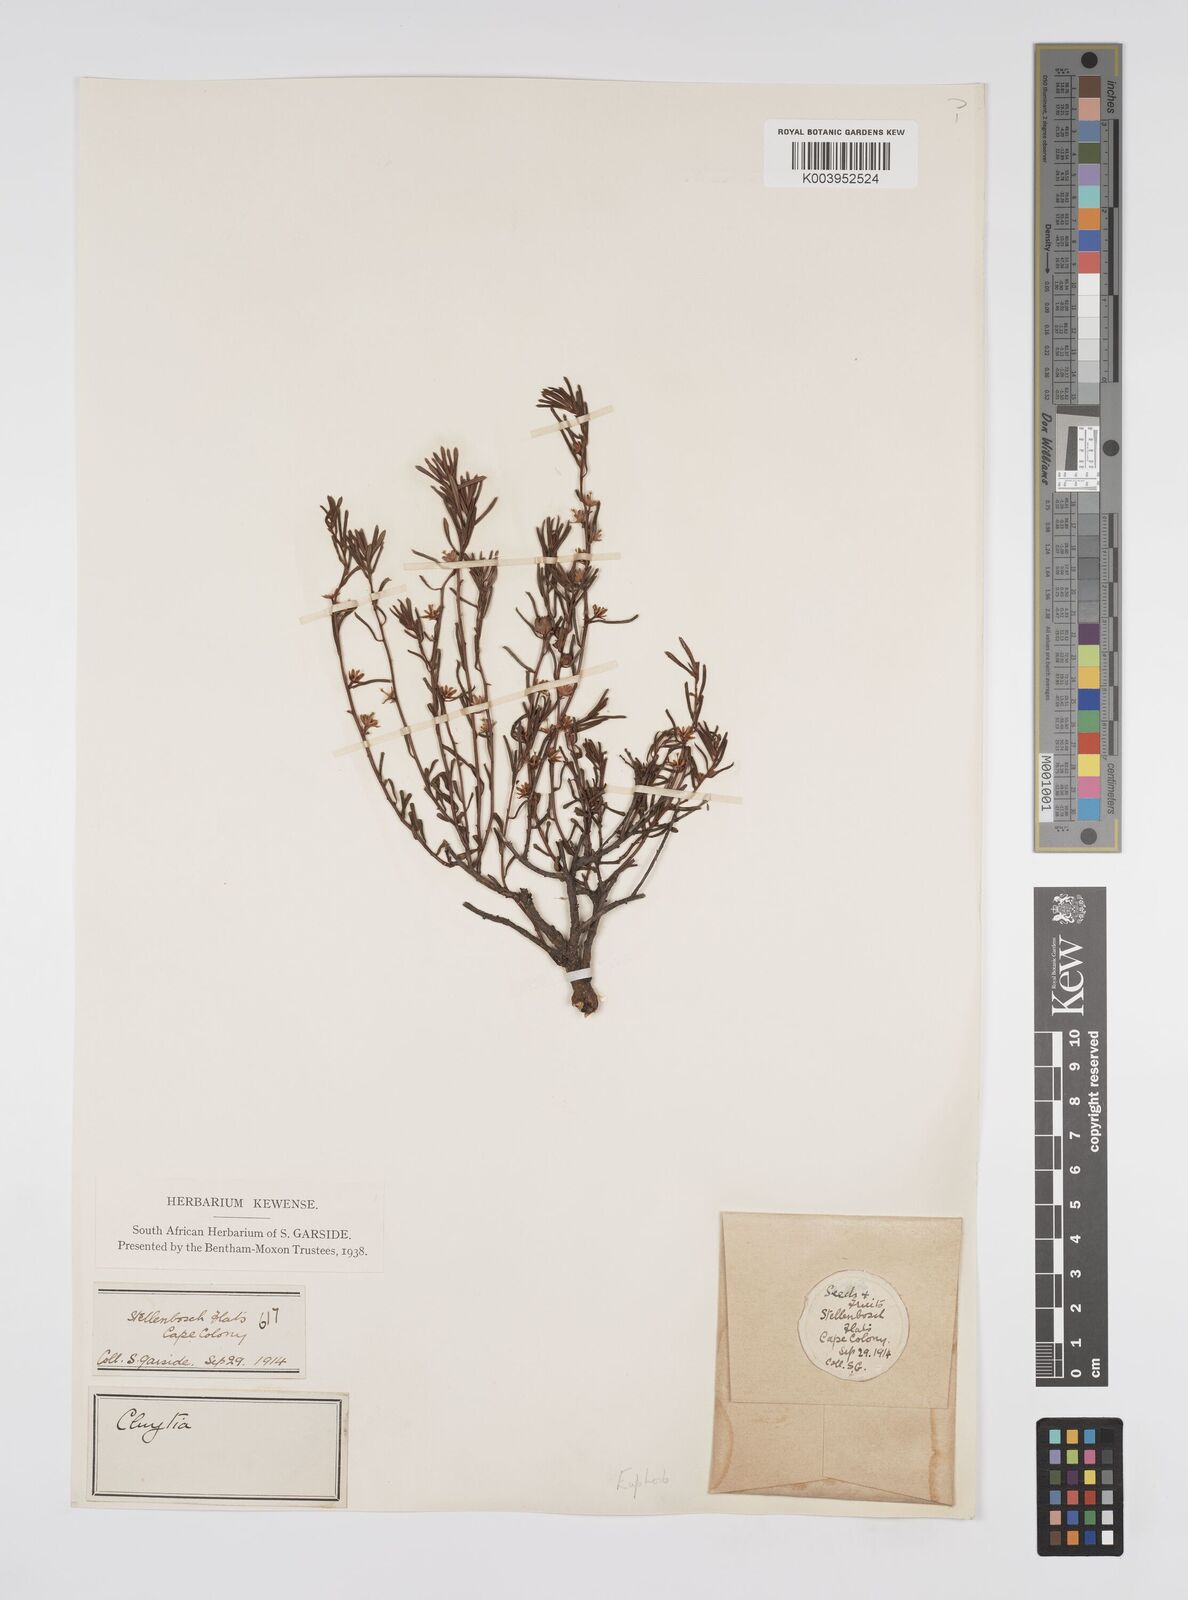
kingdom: Plantae
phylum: Tracheophyta
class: Magnoliopsida
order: Malpighiales
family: Peraceae
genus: Clutia
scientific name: Clutia
